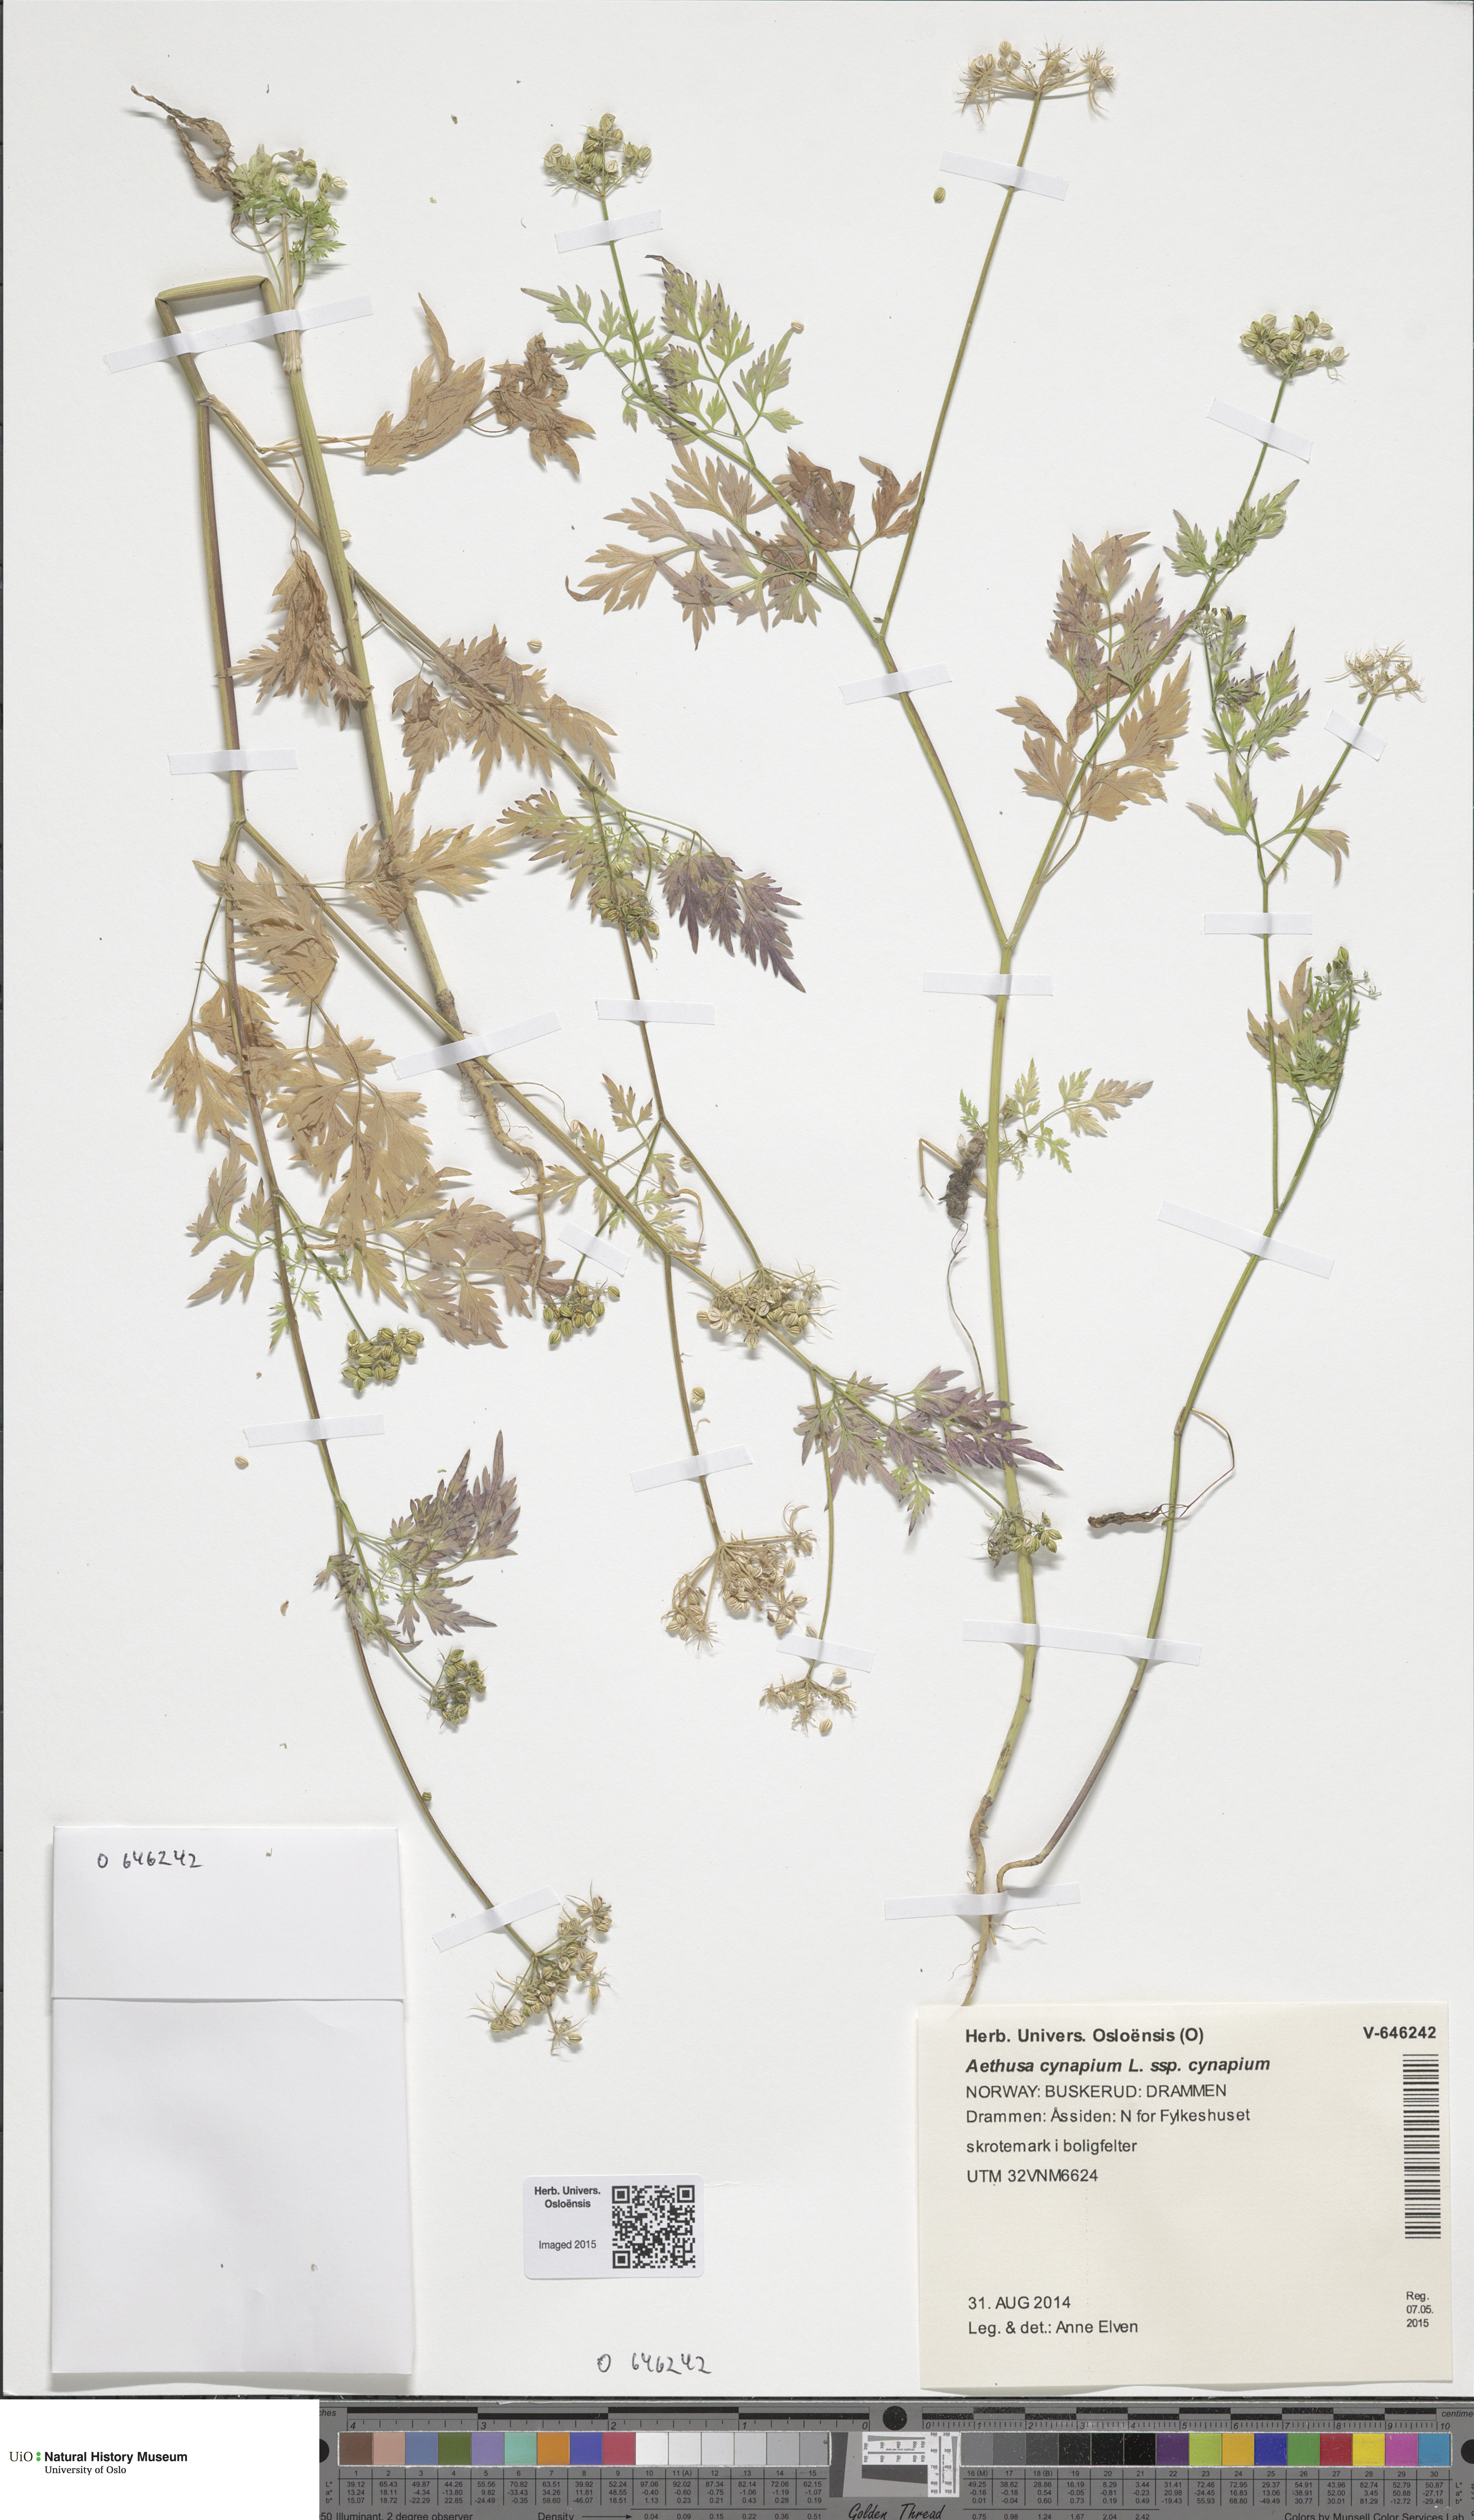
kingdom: Plantae
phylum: Tracheophyta
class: Magnoliopsida
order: Apiales
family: Apiaceae
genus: Aethusa
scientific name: Aethusa cynapium
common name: Fool's parsley
